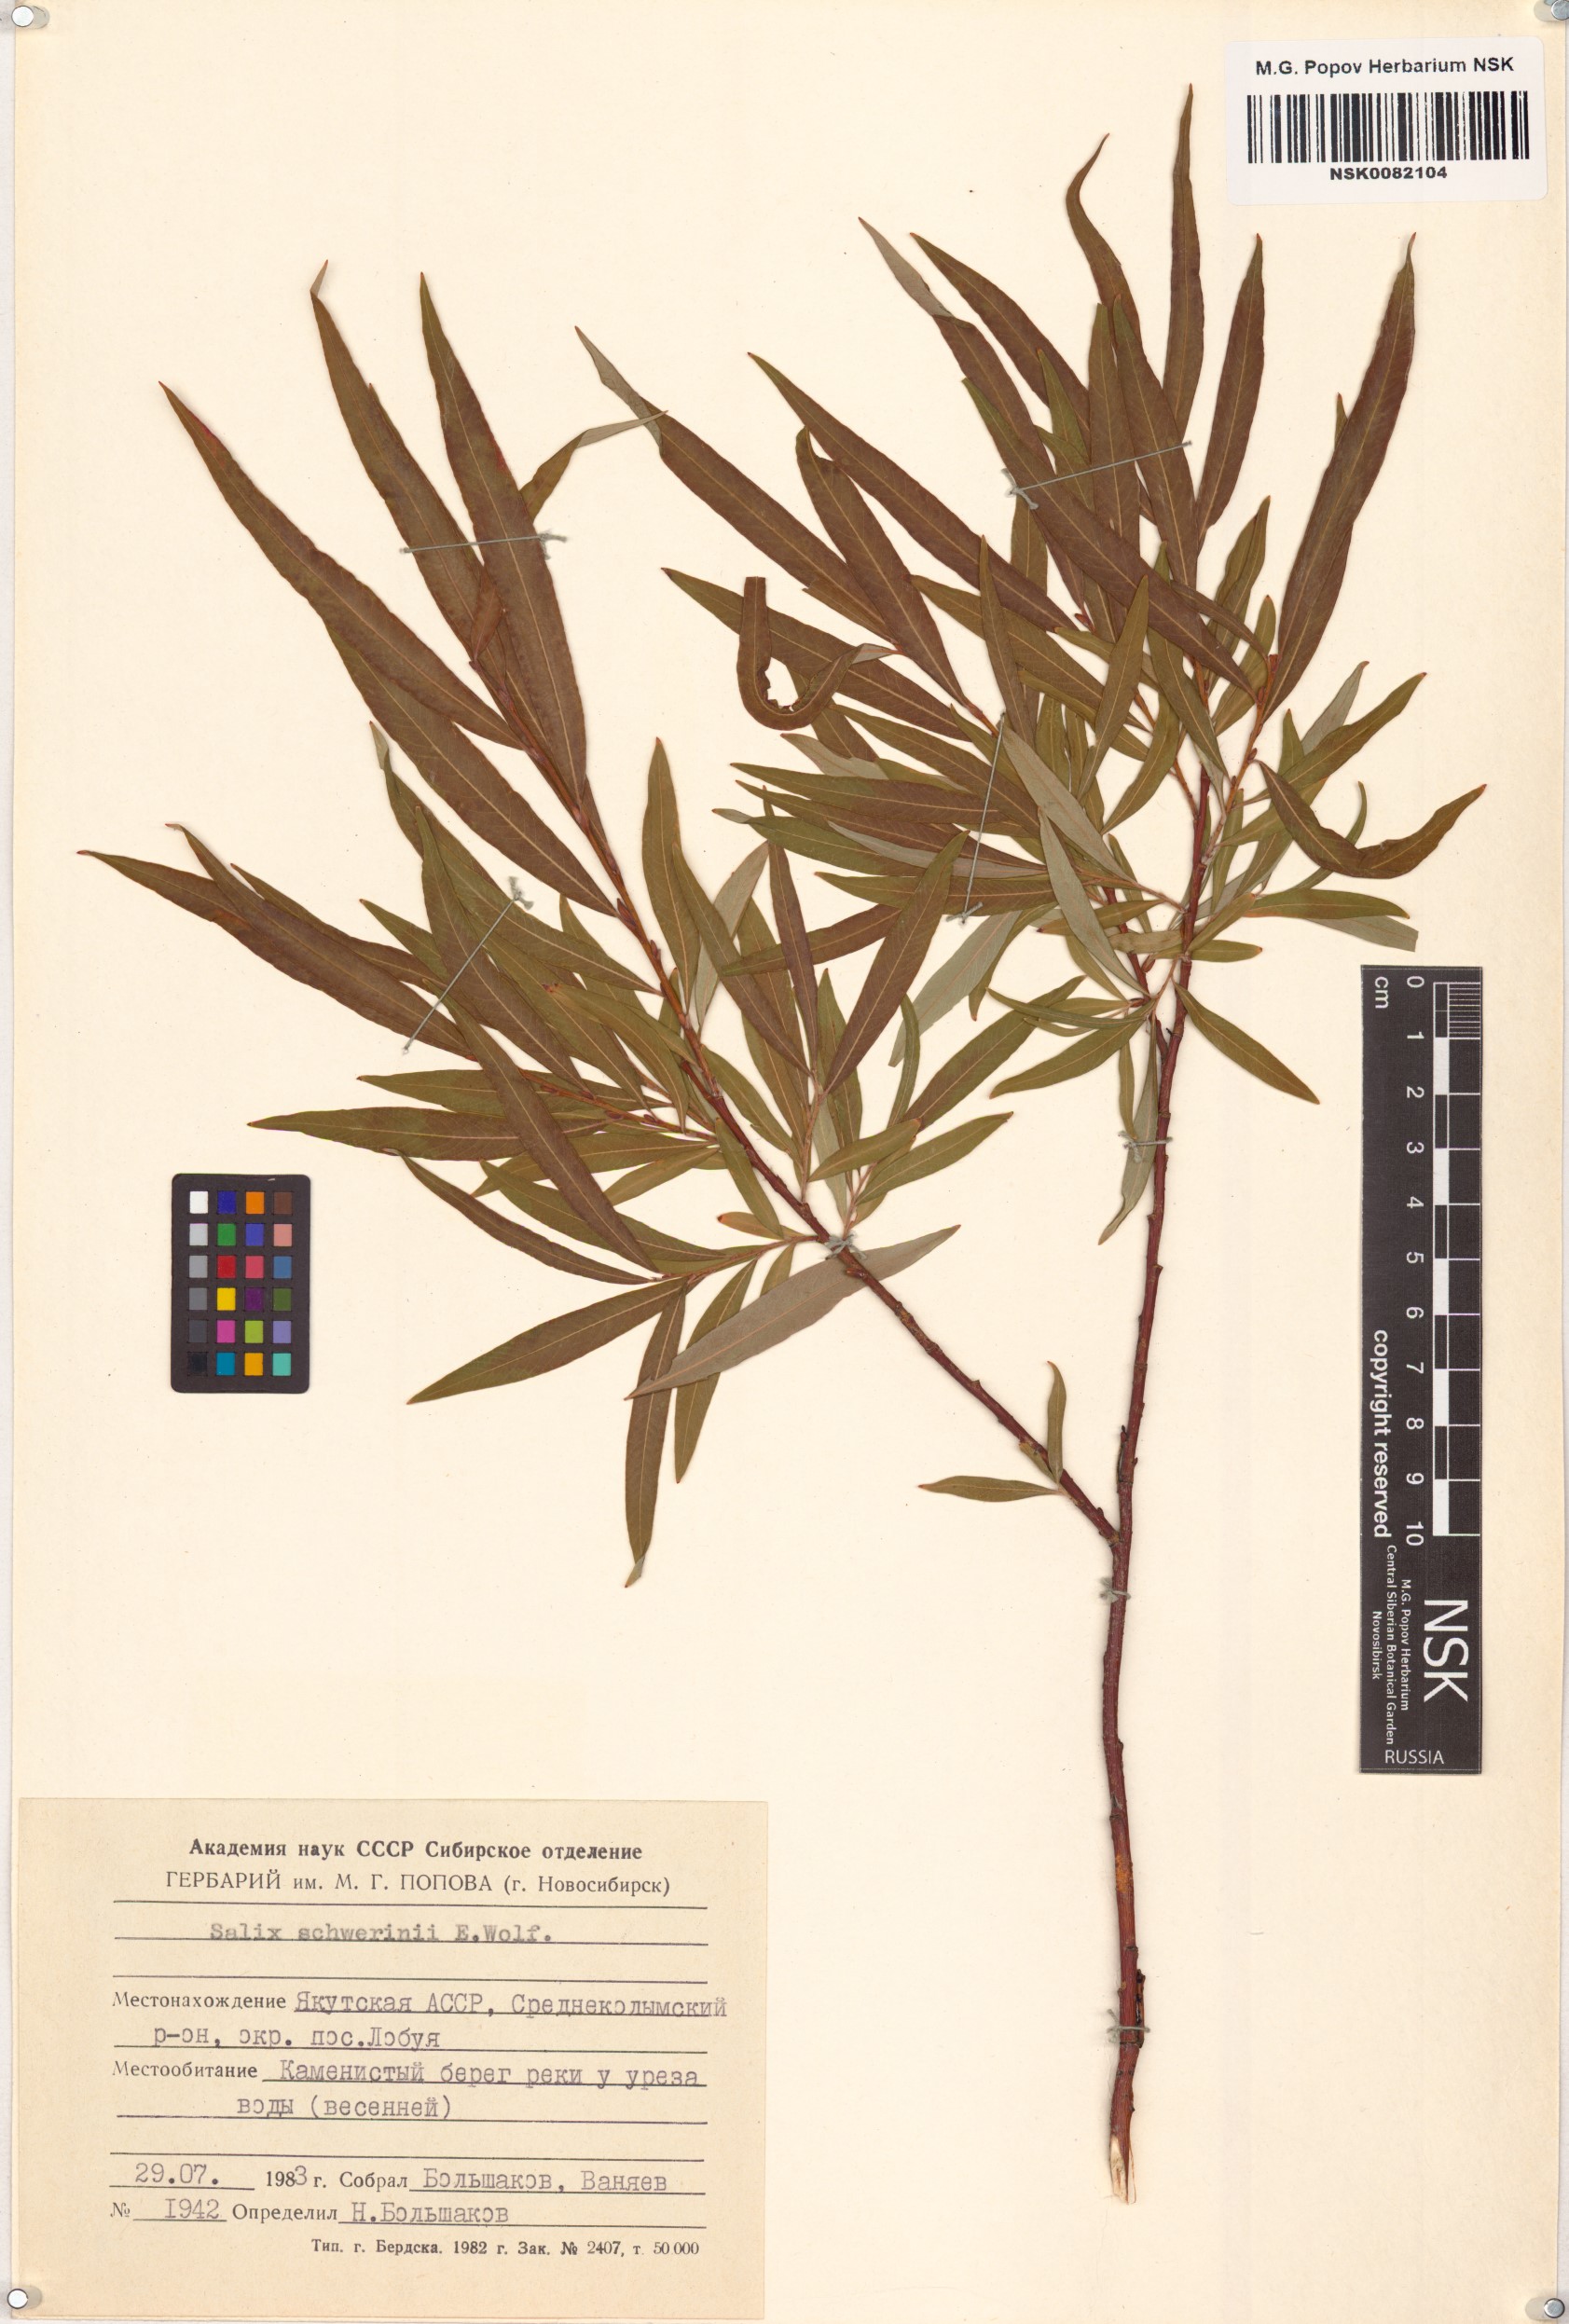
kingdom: Plantae
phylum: Tracheophyta
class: Magnoliopsida
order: Malpighiales
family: Salicaceae
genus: Salix
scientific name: Salix schwerinii
